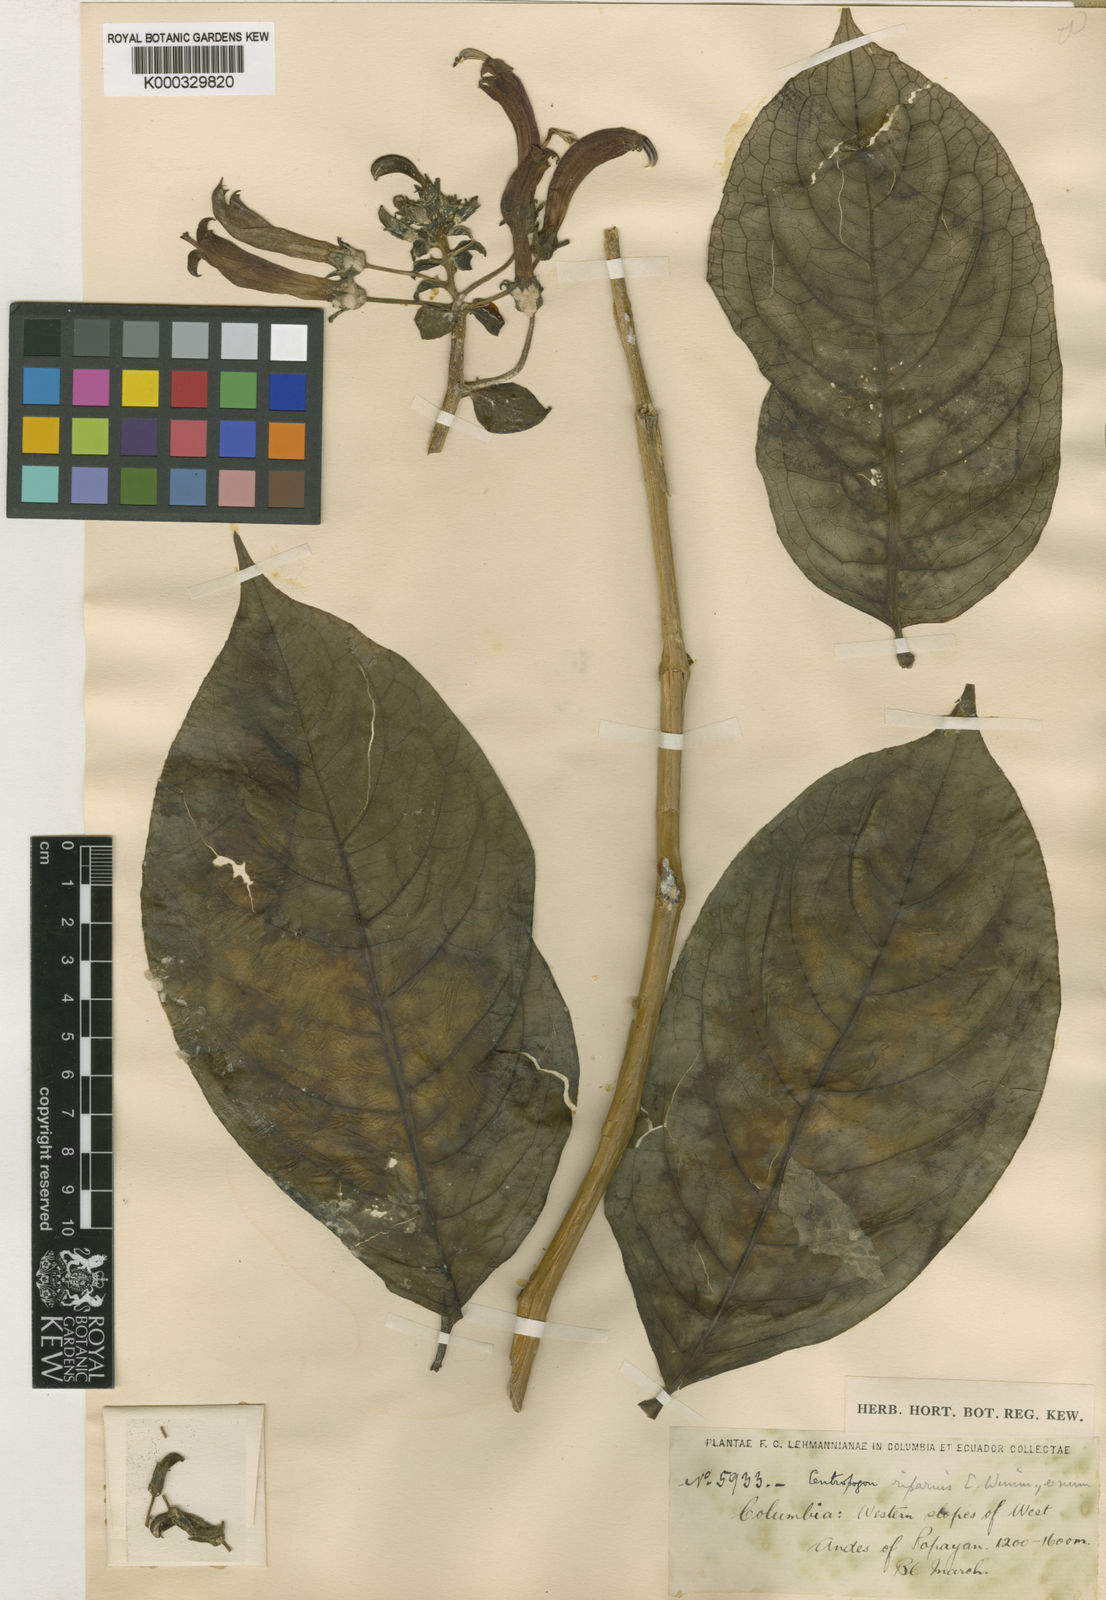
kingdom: Plantae
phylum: Tracheophyta
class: Magnoliopsida
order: Asterales
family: Campanulaceae
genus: Centropogon
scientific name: Centropogon solanifolius
